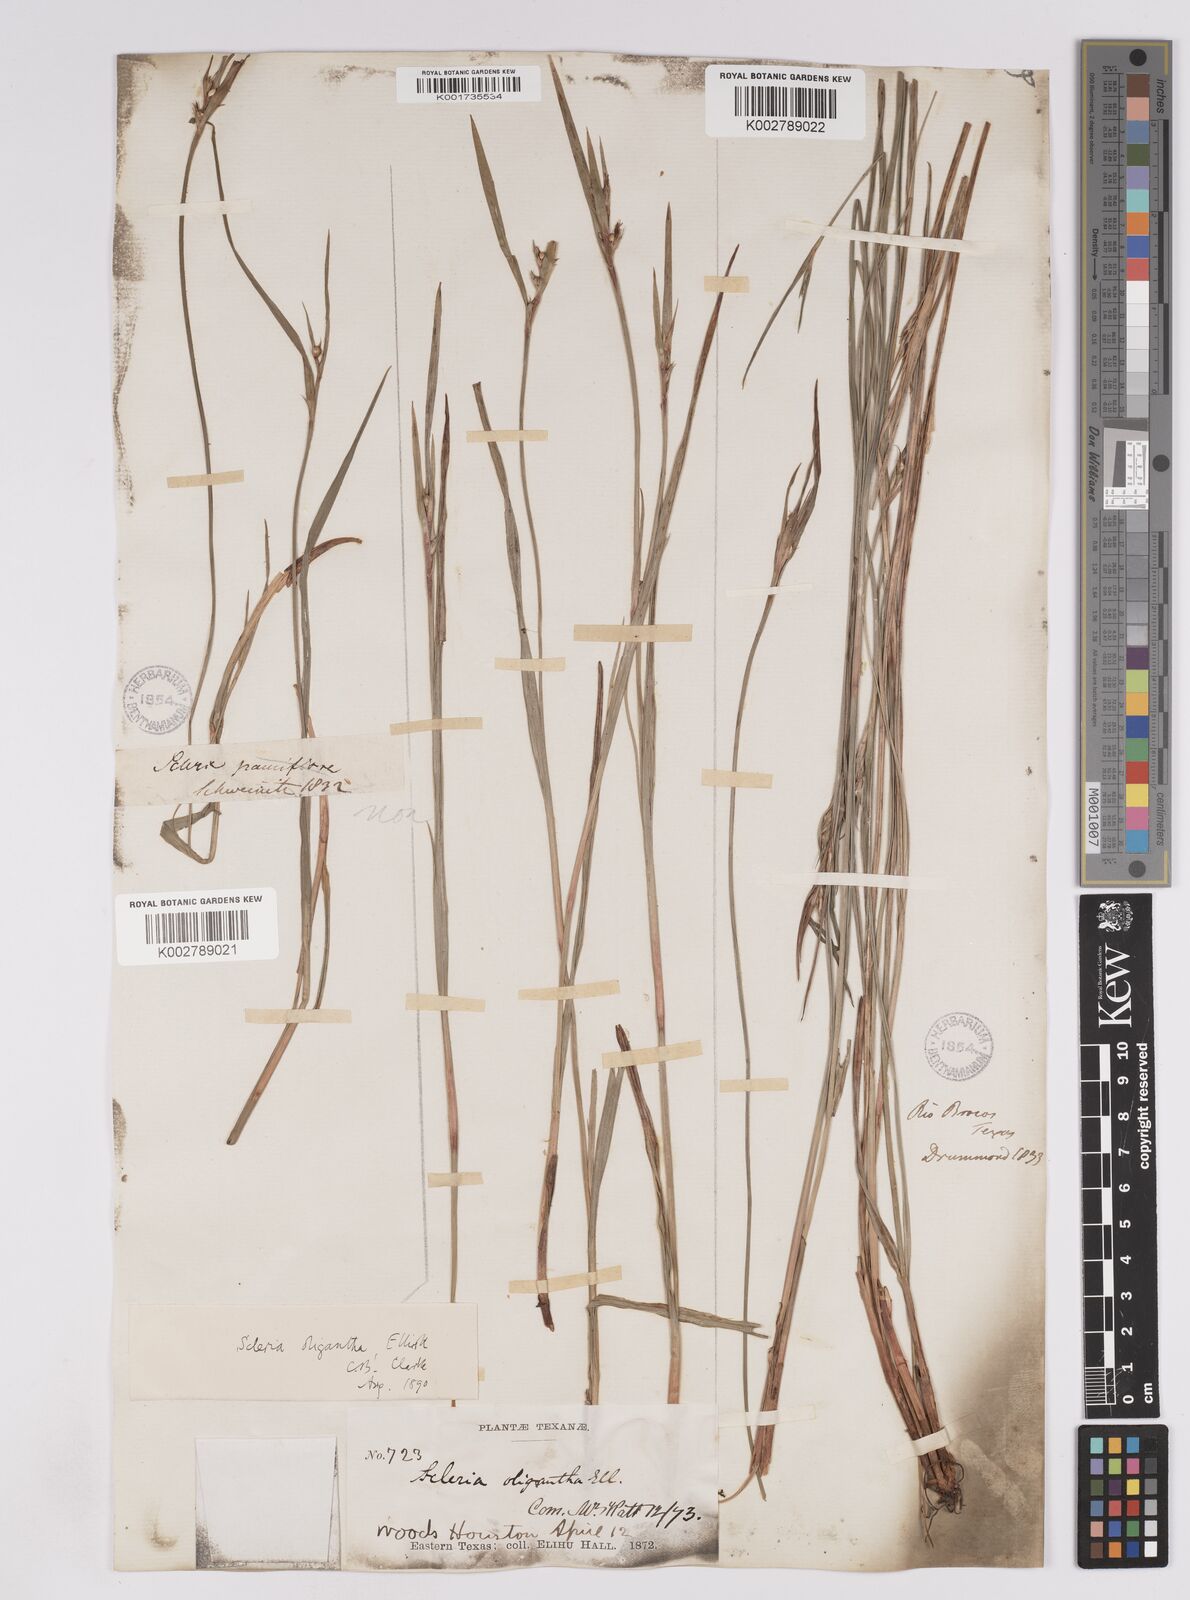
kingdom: Plantae
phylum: Tracheophyta
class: Liliopsida
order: Poales
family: Cyperaceae
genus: Scleria
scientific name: Scleria oligantha
